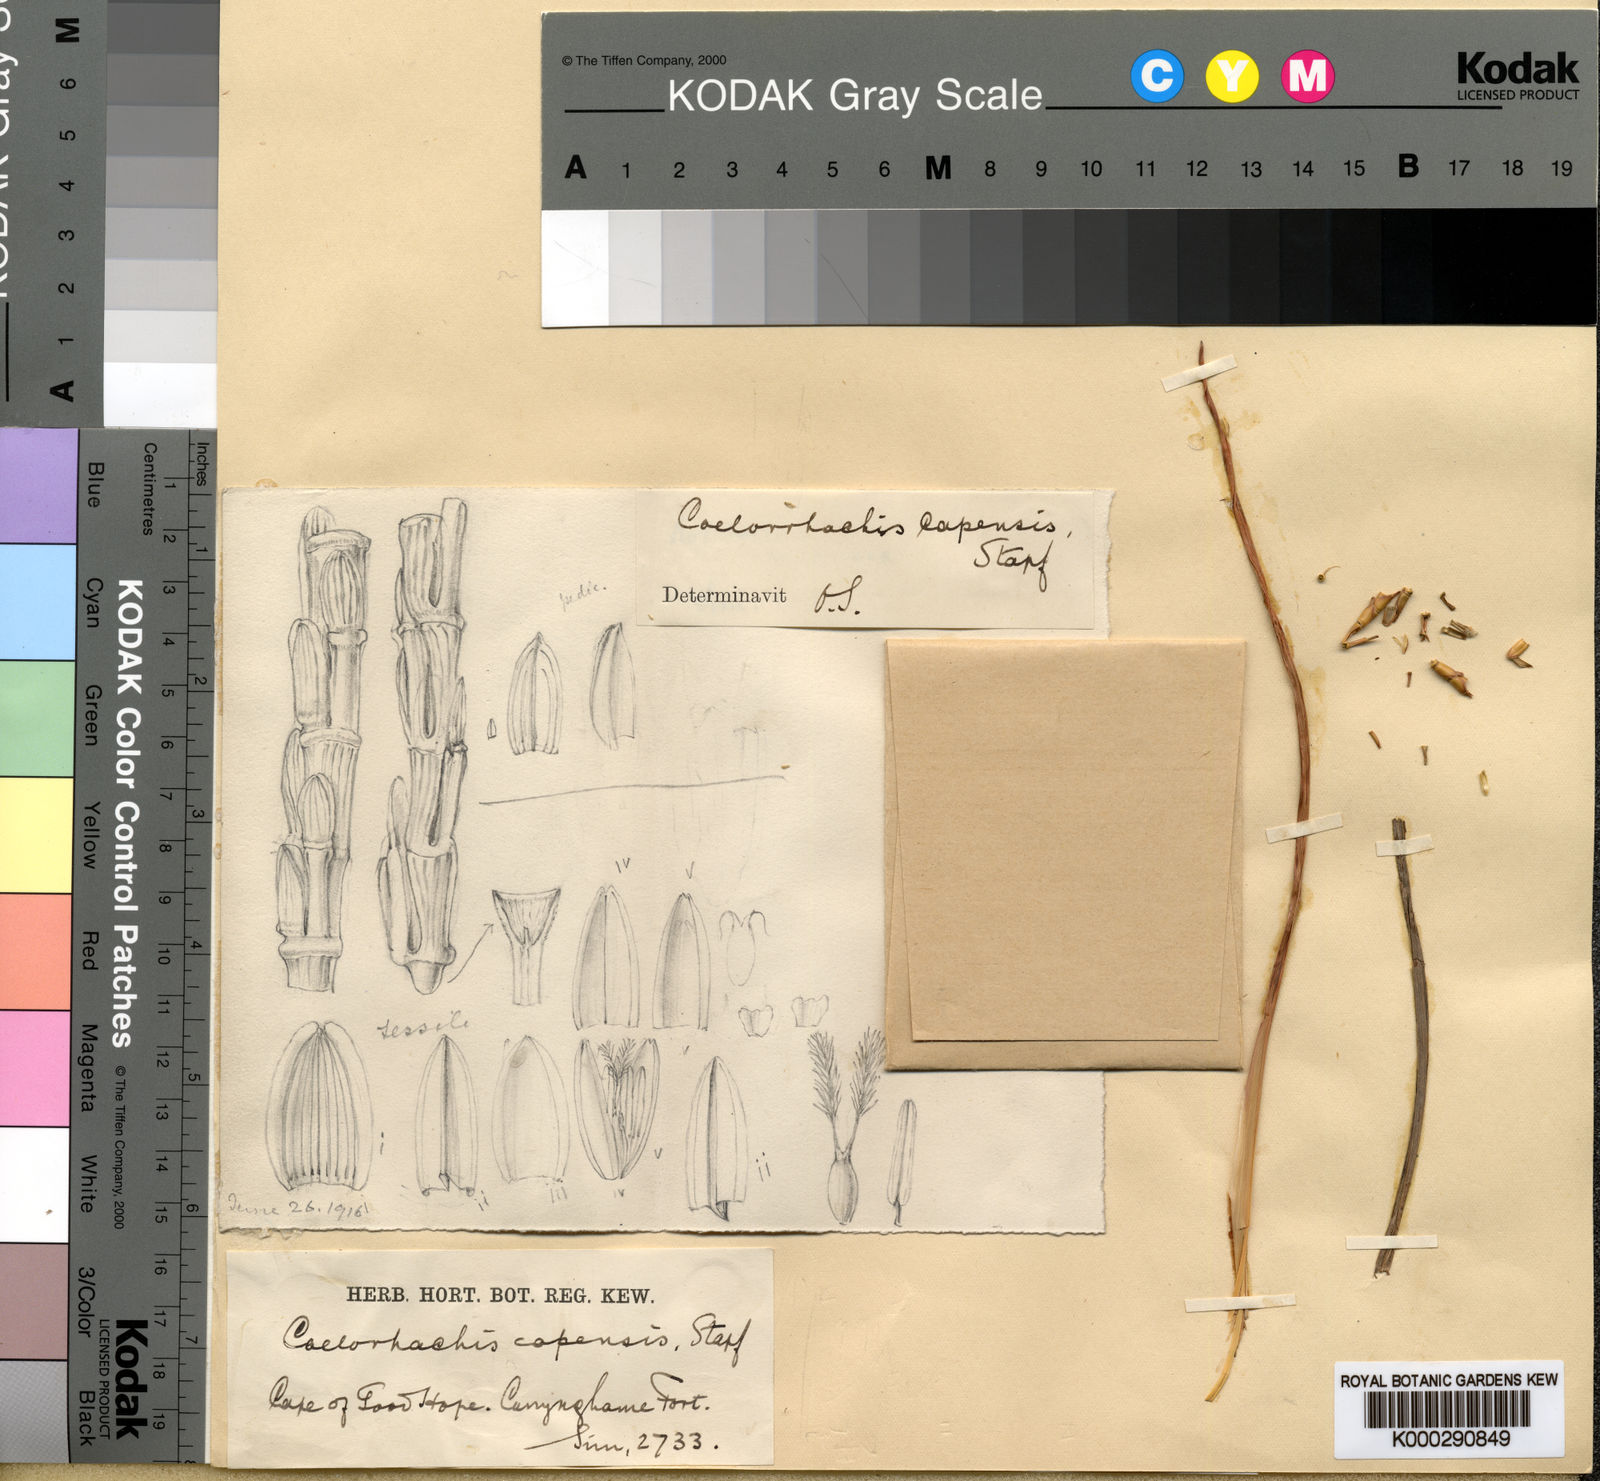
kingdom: Plantae
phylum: Tracheophyta
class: Liliopsida
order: Poales
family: Poaceae
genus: Rottboellia
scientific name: Rottboellia Coelorachis capensis
